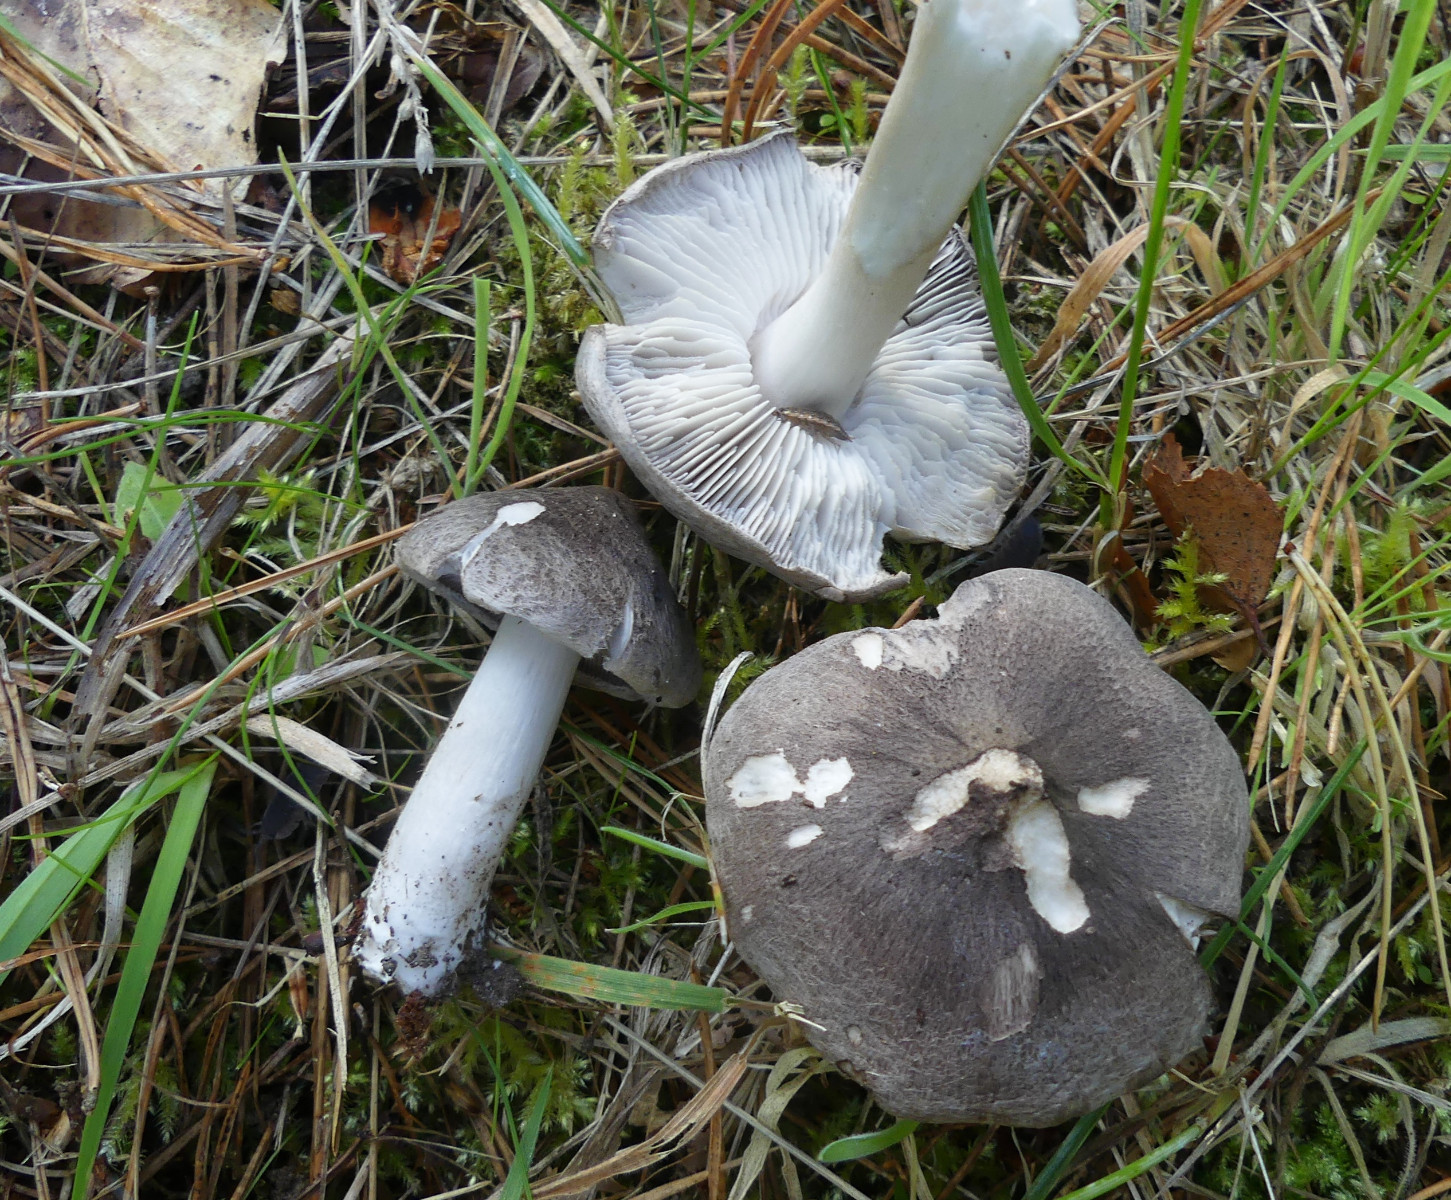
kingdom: Fungi
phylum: Basidiomycota
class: Agaricomycetes
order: Agaricales
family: Tricholomataceae
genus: Tricholoma
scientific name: Tricholoma terreum
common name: jordfarvet ridderhat
